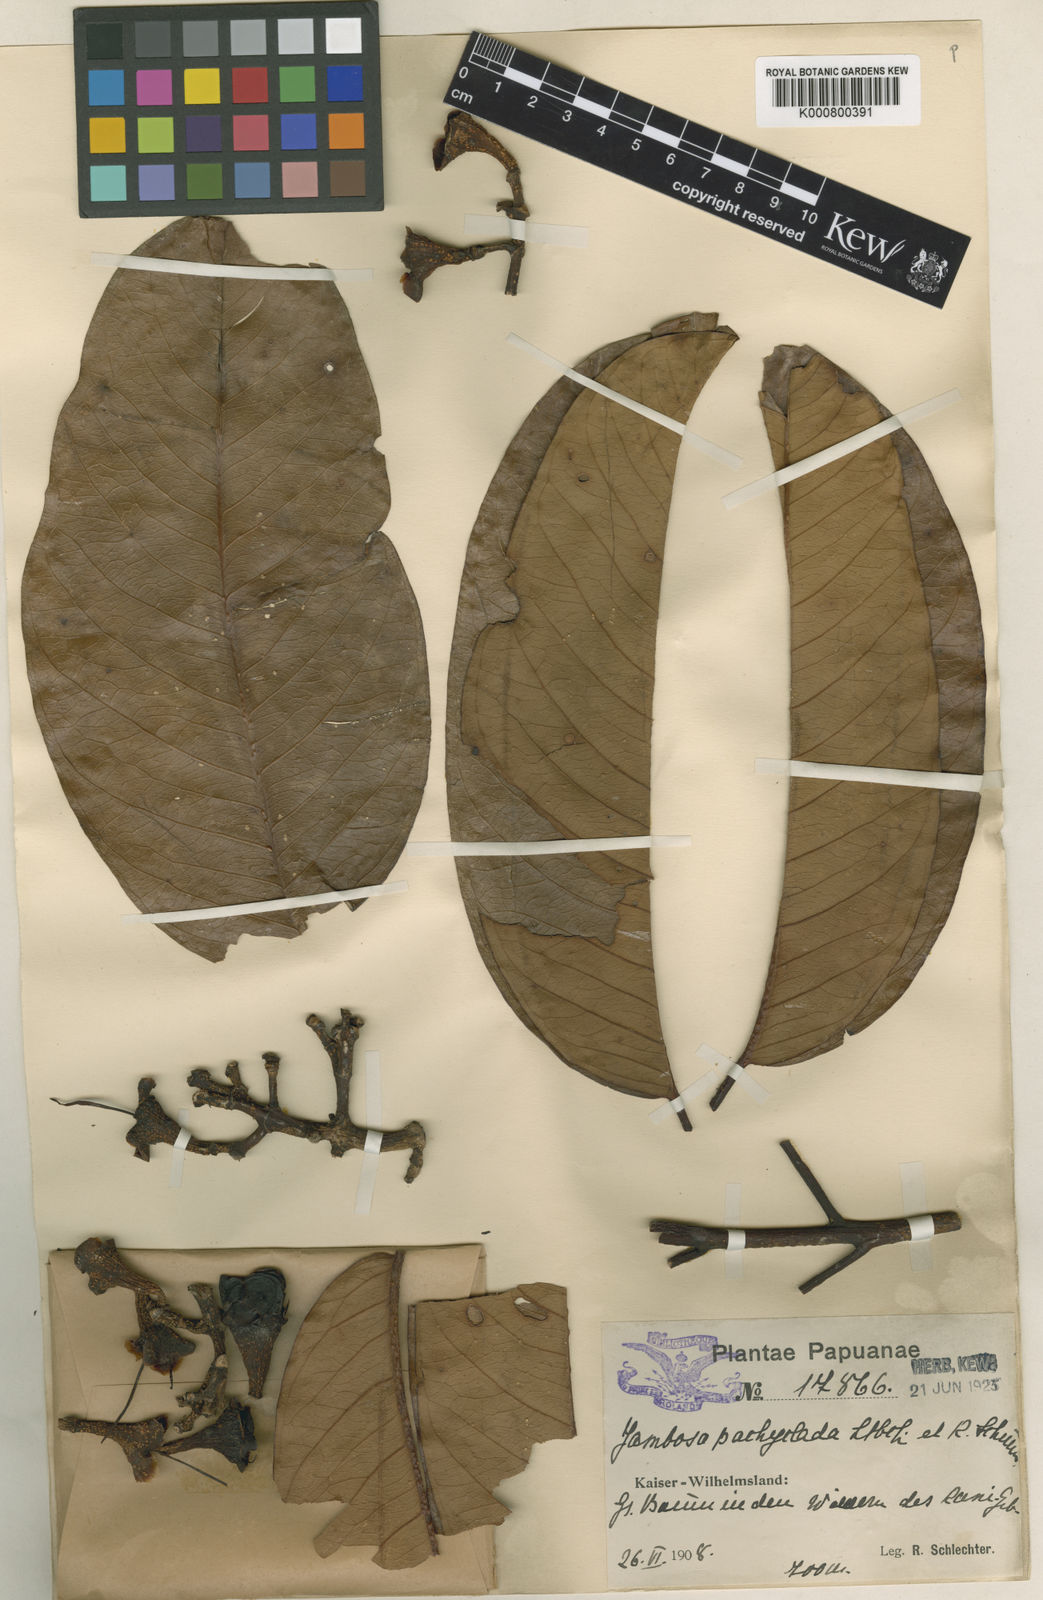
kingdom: Plantae
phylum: Tracheophyta
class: Magnoliopsida
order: Myrtales
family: Myrtaceae
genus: Syzygium
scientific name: Syzygium pachycladum
